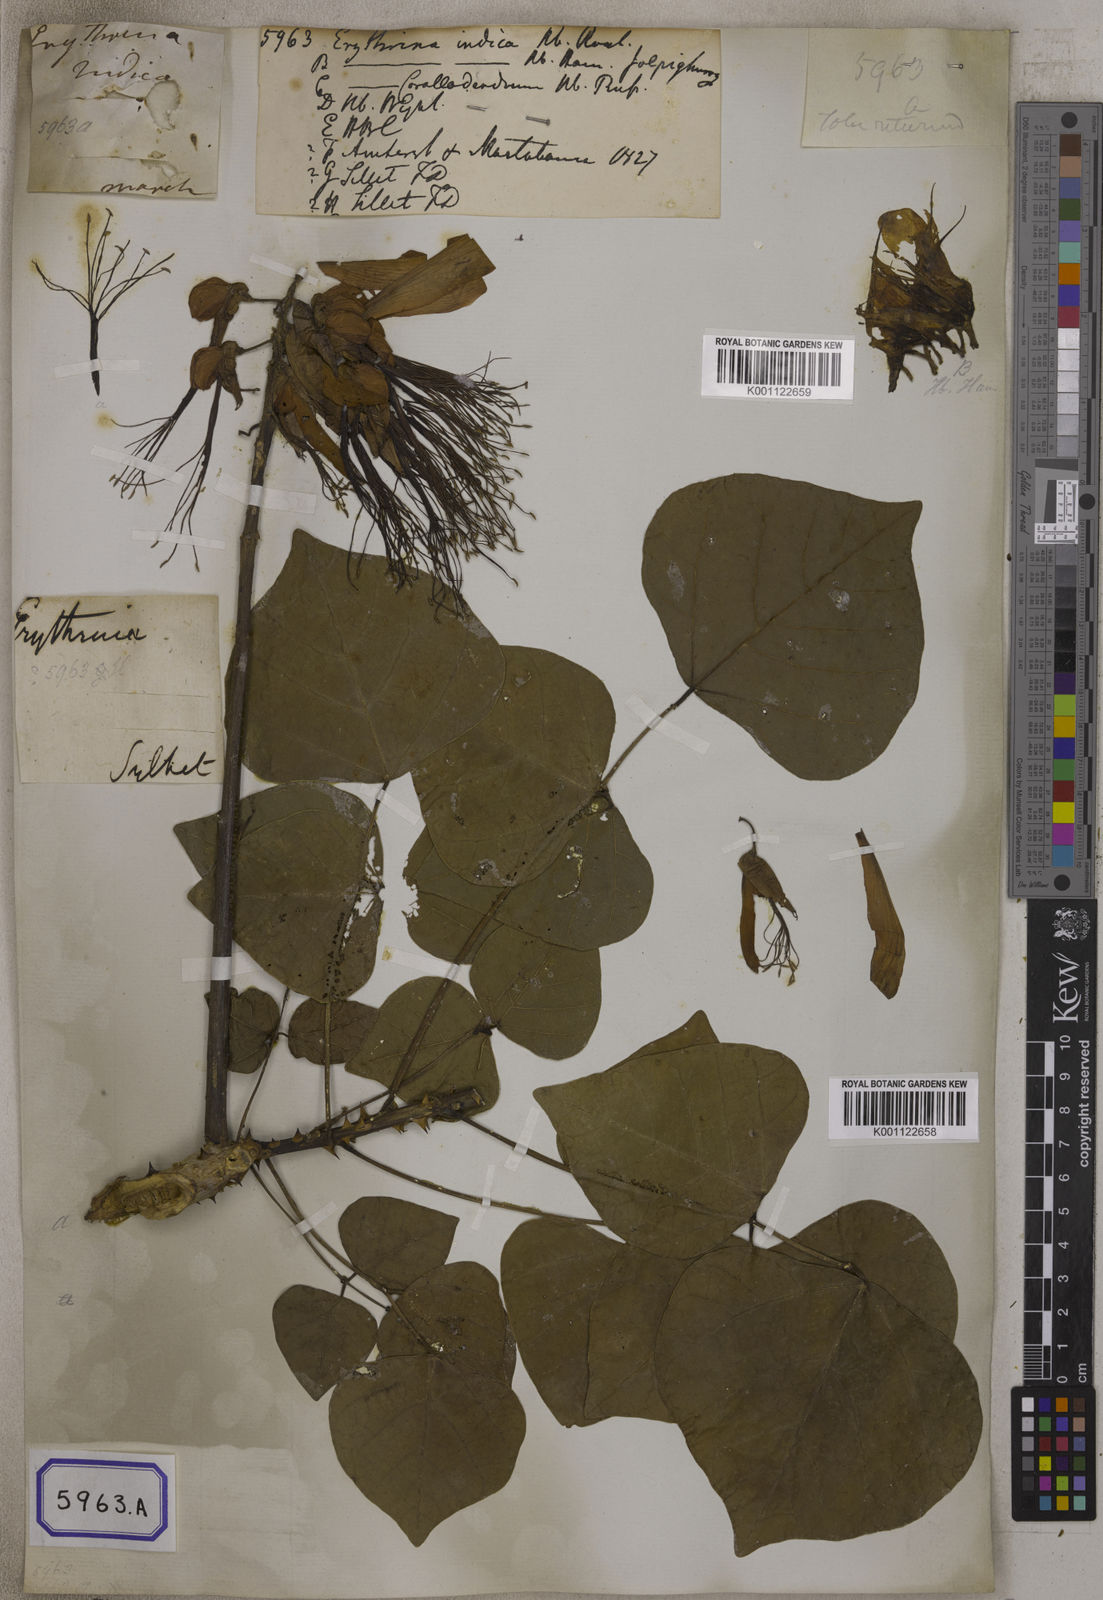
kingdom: Plantae
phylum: Tracheophyta
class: Magnoliopsida
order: Fabales
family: Fabaceae
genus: Erythrina
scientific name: Erythrina variegata
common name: Indian coral tree
